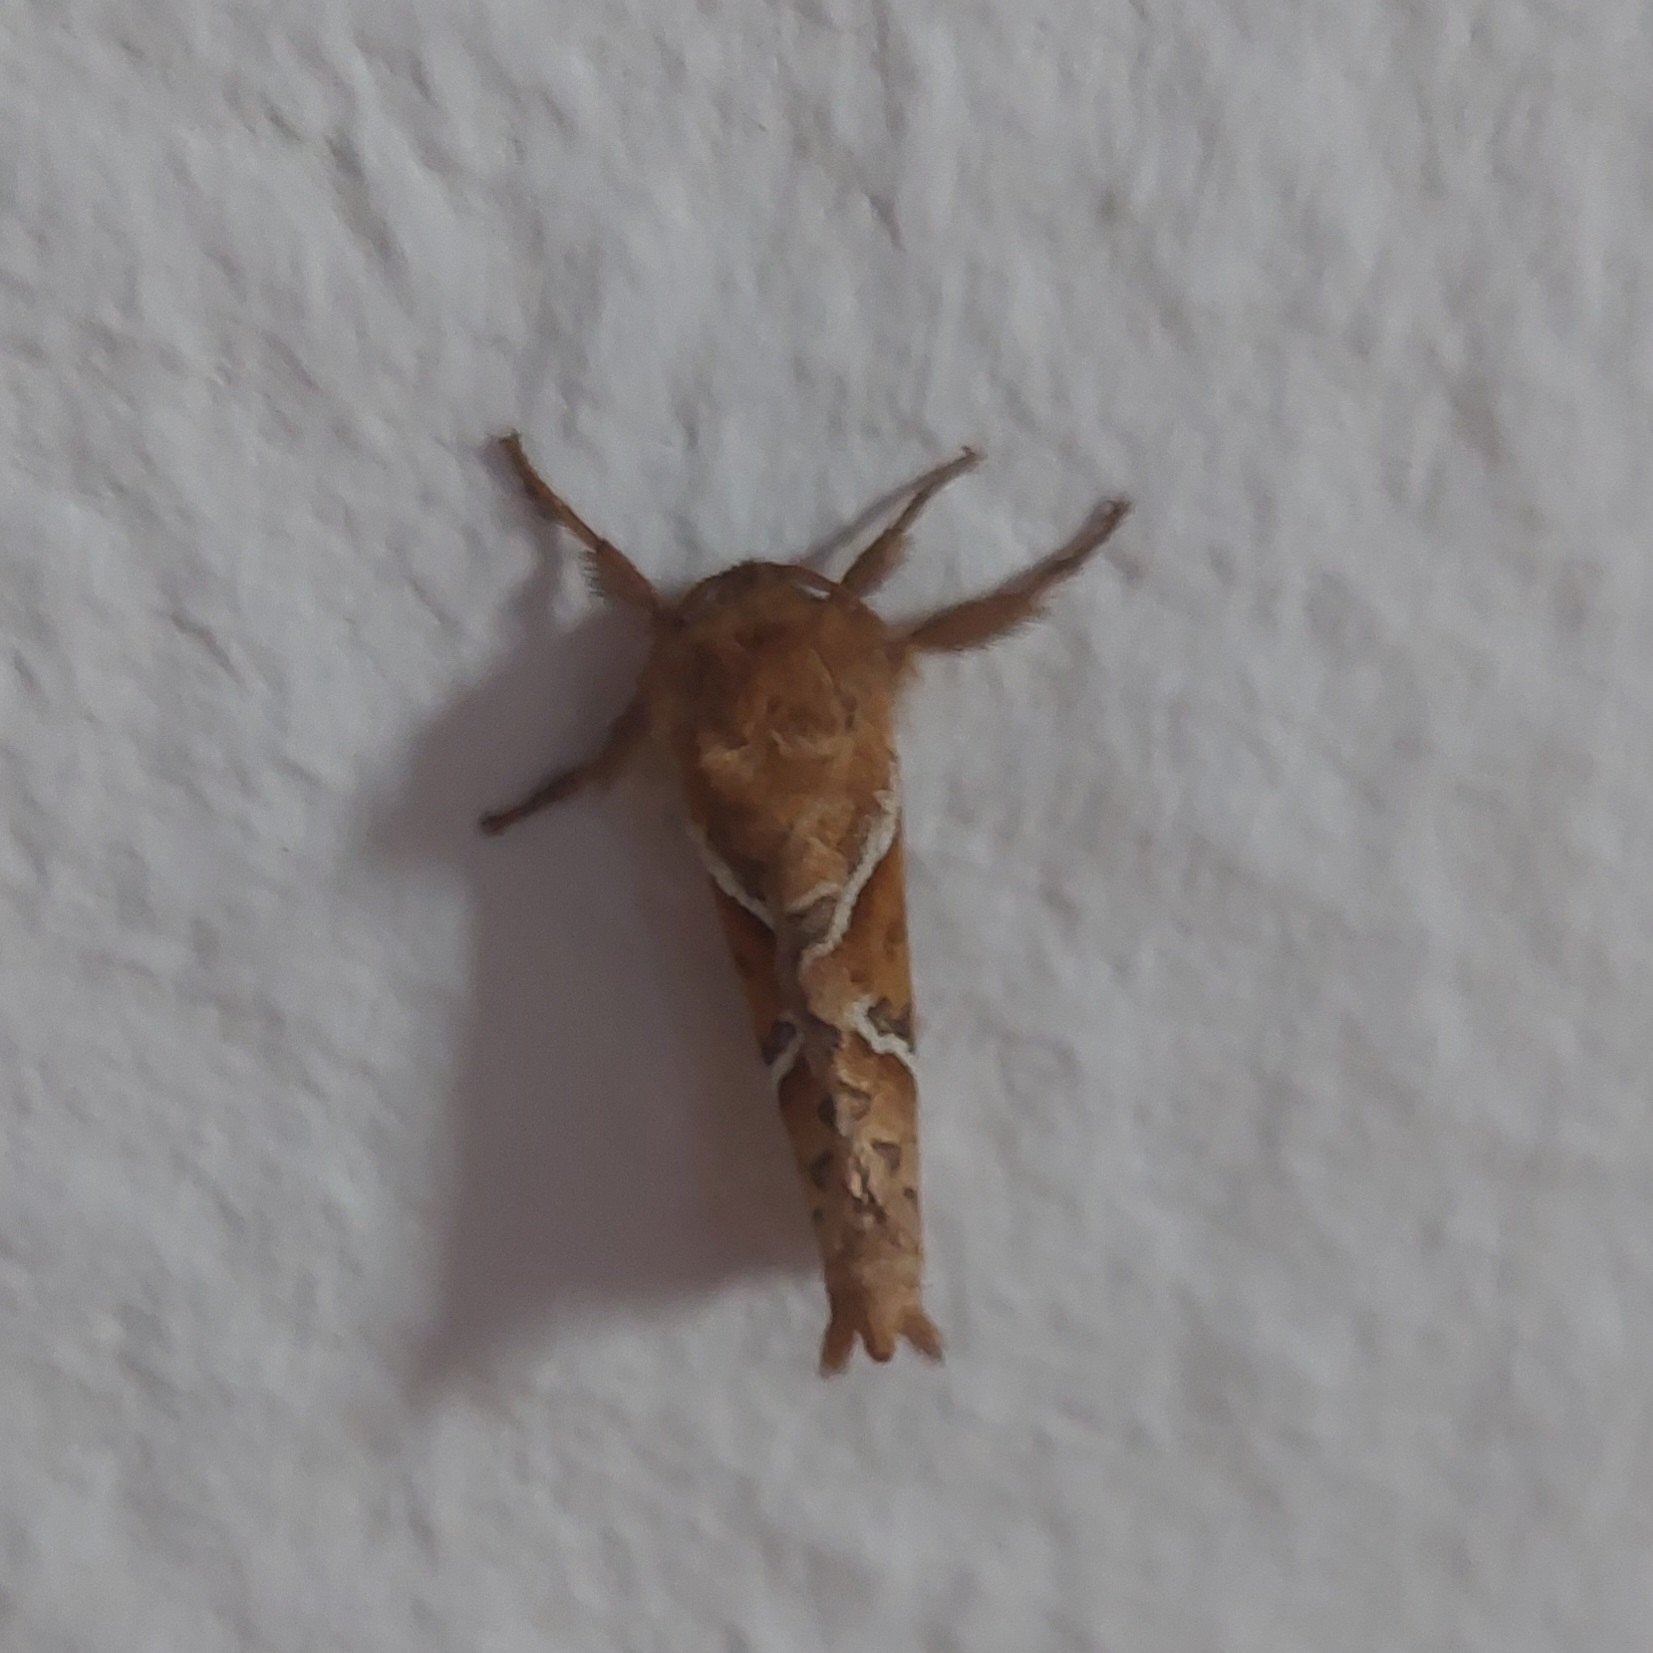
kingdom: Animalia
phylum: Arthropoda
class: Insecta
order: Lepidoptera
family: Hepialidae
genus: Triodia
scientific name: Triodia sylvina
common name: Skræpperodæder
